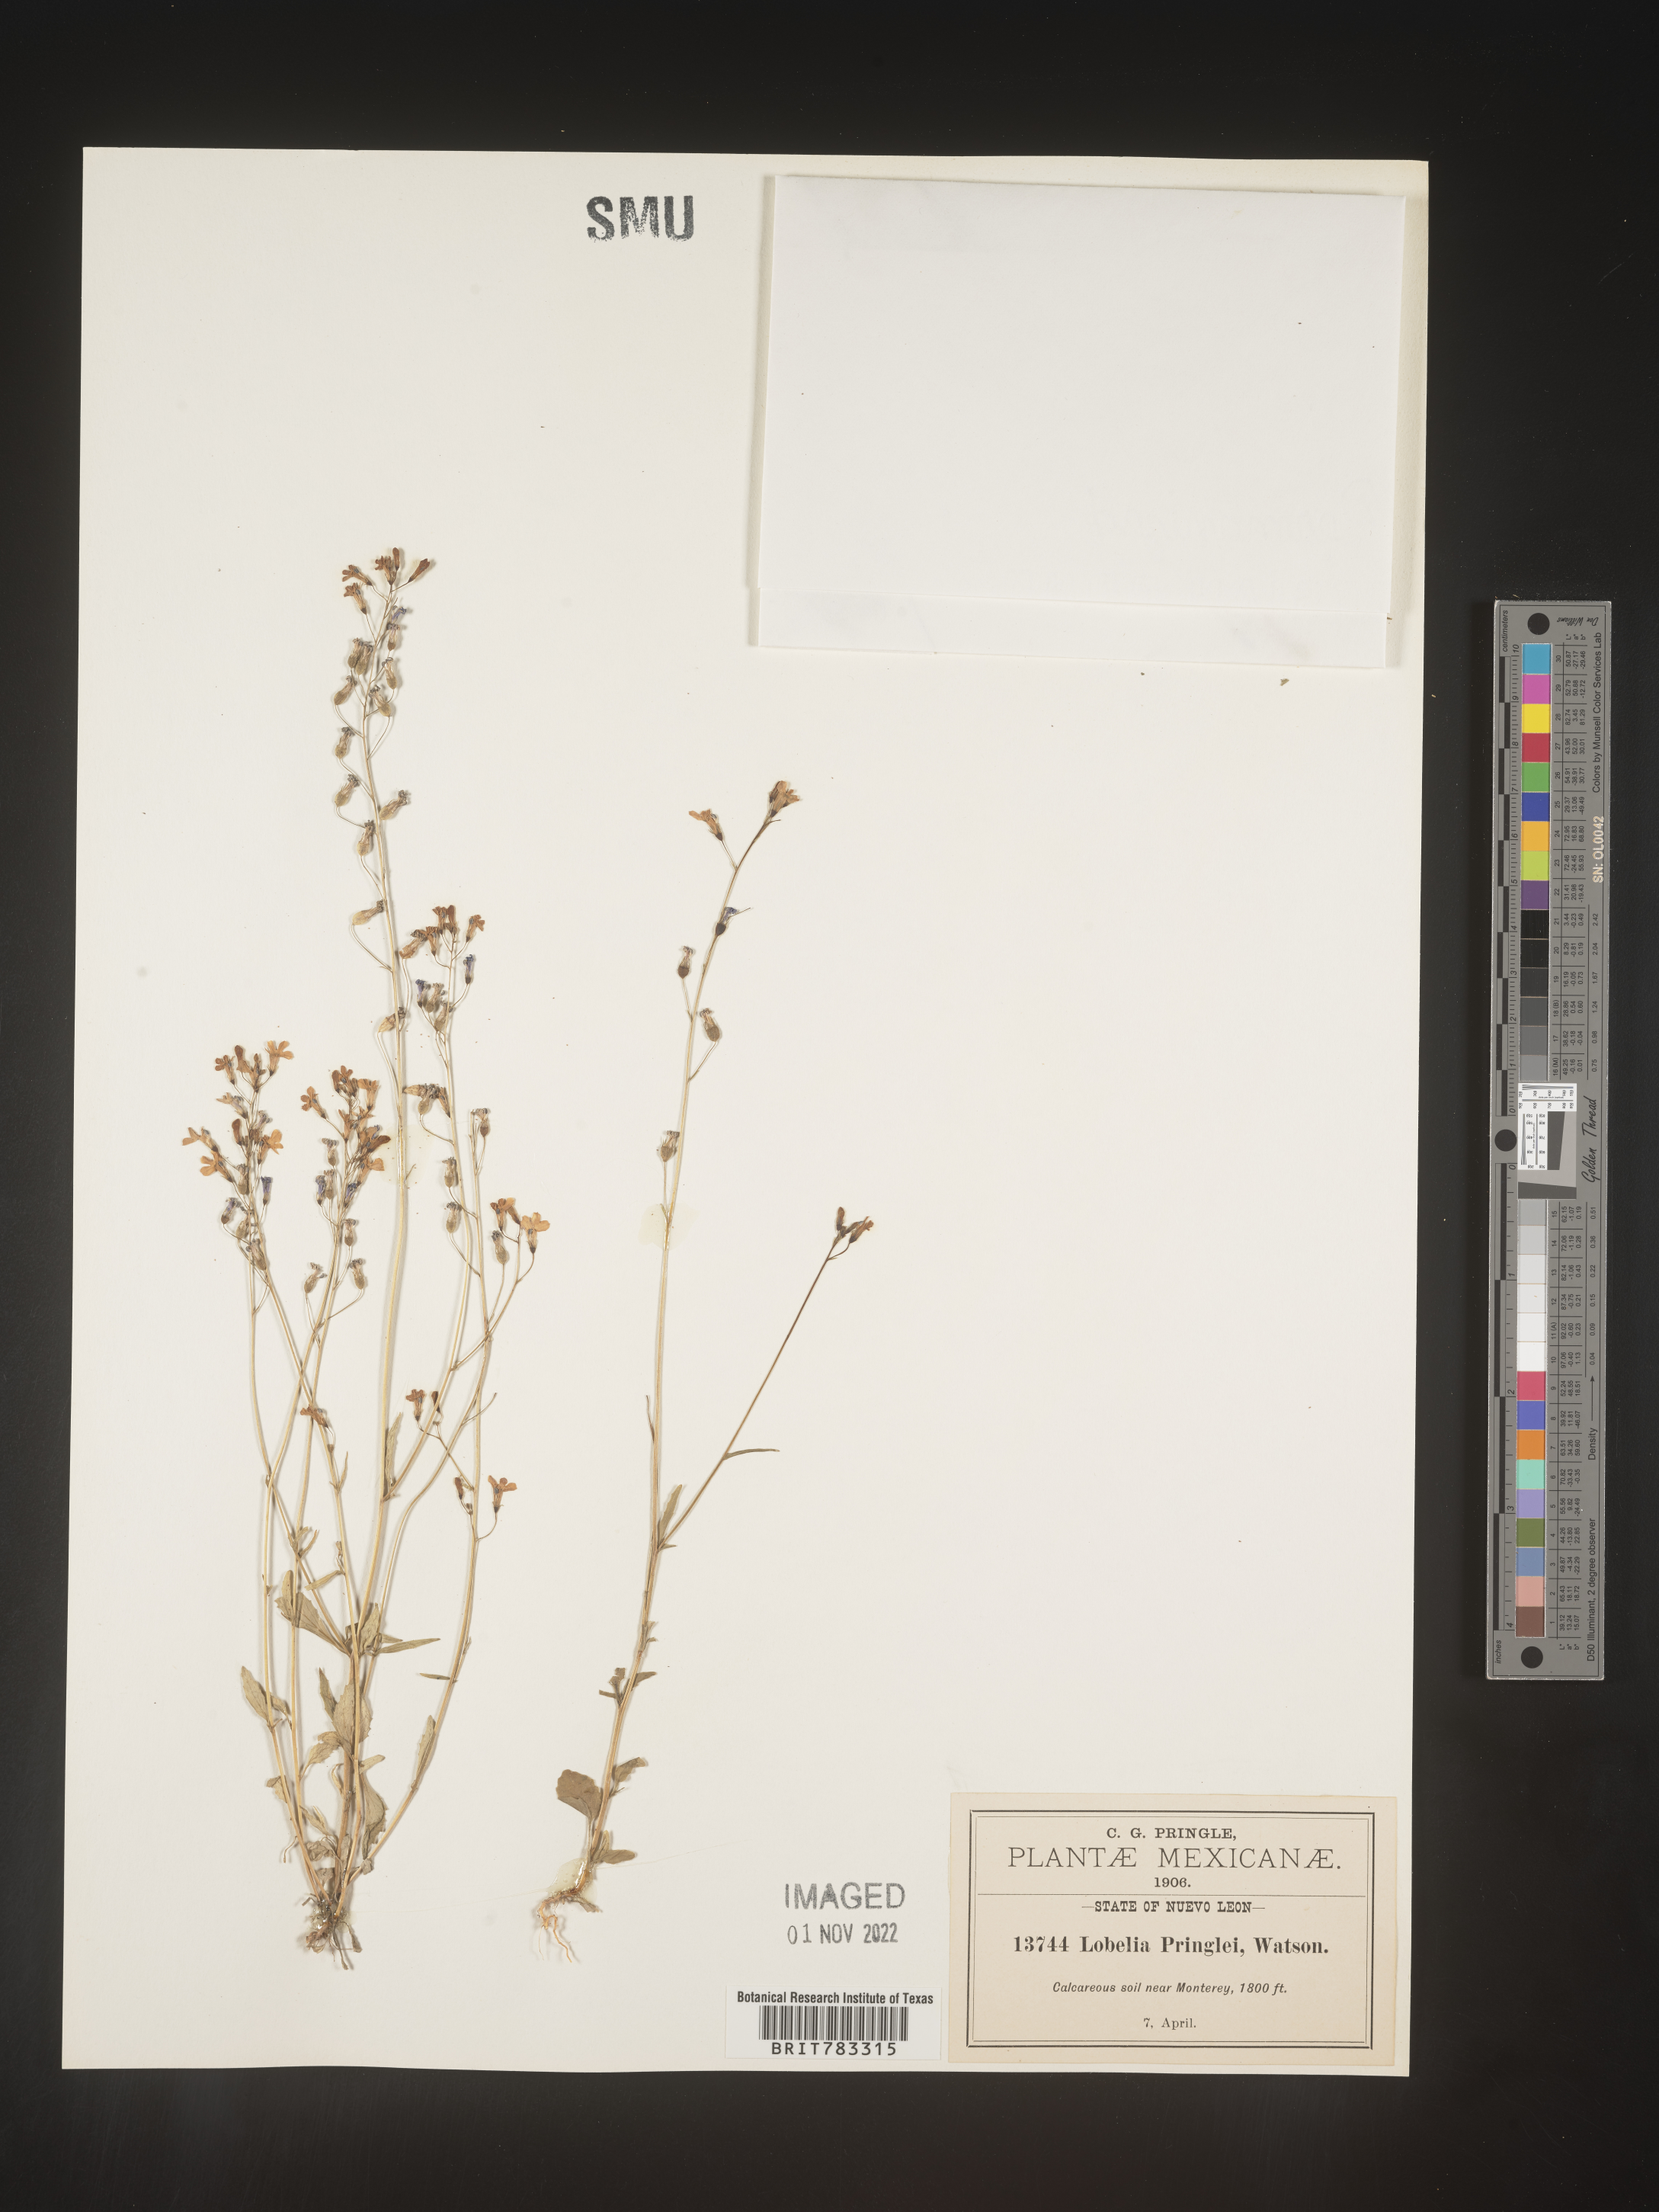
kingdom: Plantae
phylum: Tracheophyta
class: Magnoliopsida
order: Asterales
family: Campanulaceae
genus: Lobelia
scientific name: Lobelia
